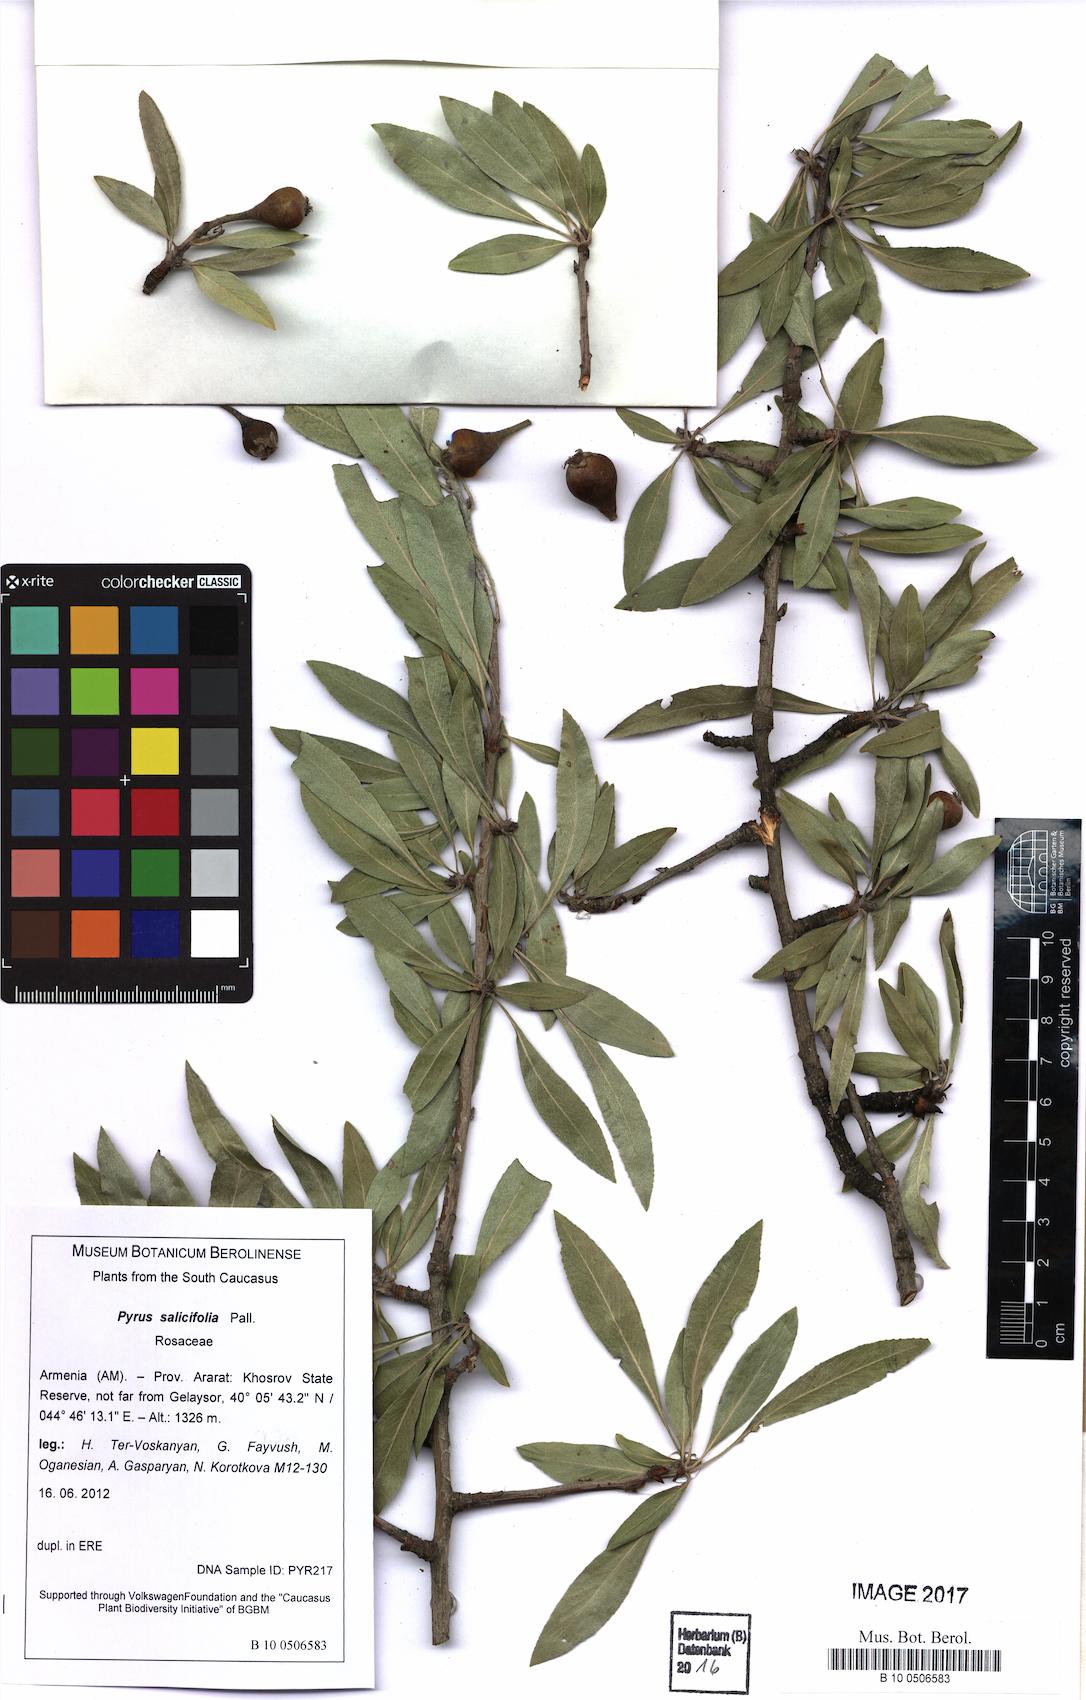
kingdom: Plantae
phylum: Tracheophyta
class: Magnoliopsida
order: Rosales
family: Rosaceae
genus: Pyrus
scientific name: Pyrus zangezura
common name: Zangezurian pear
